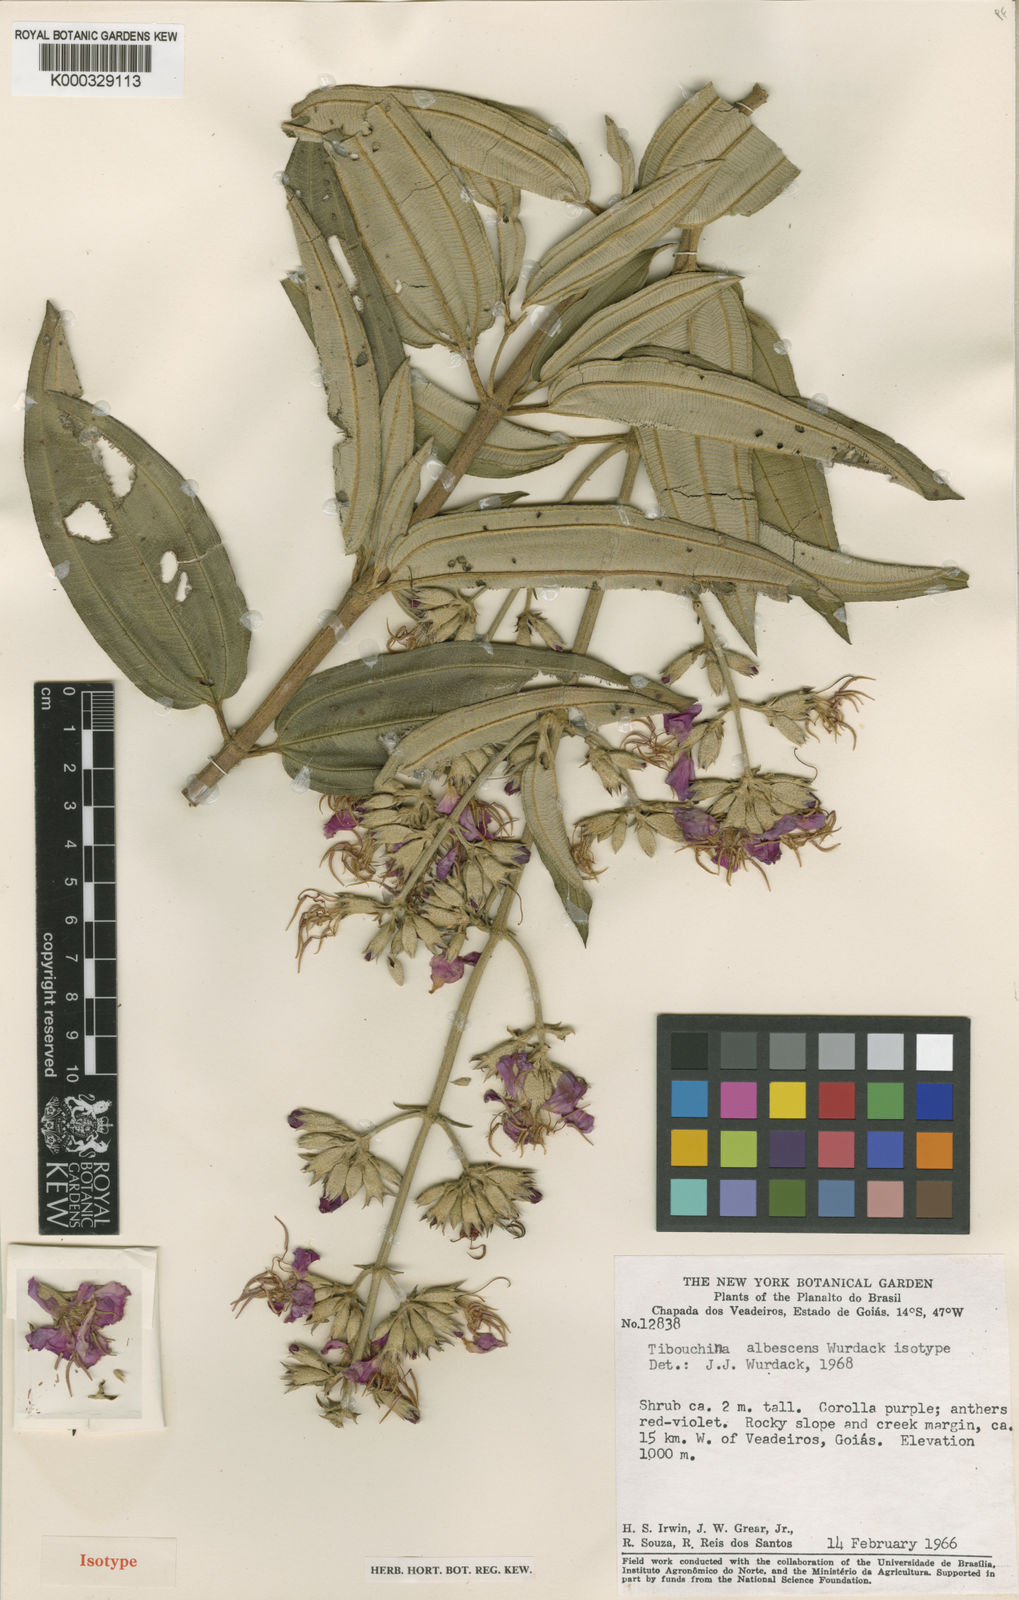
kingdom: Plantae
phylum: Tracheophyta
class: Magnoliopsida
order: Myrtales
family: Melastomataceae
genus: Tibouchina
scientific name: Tibouchina
